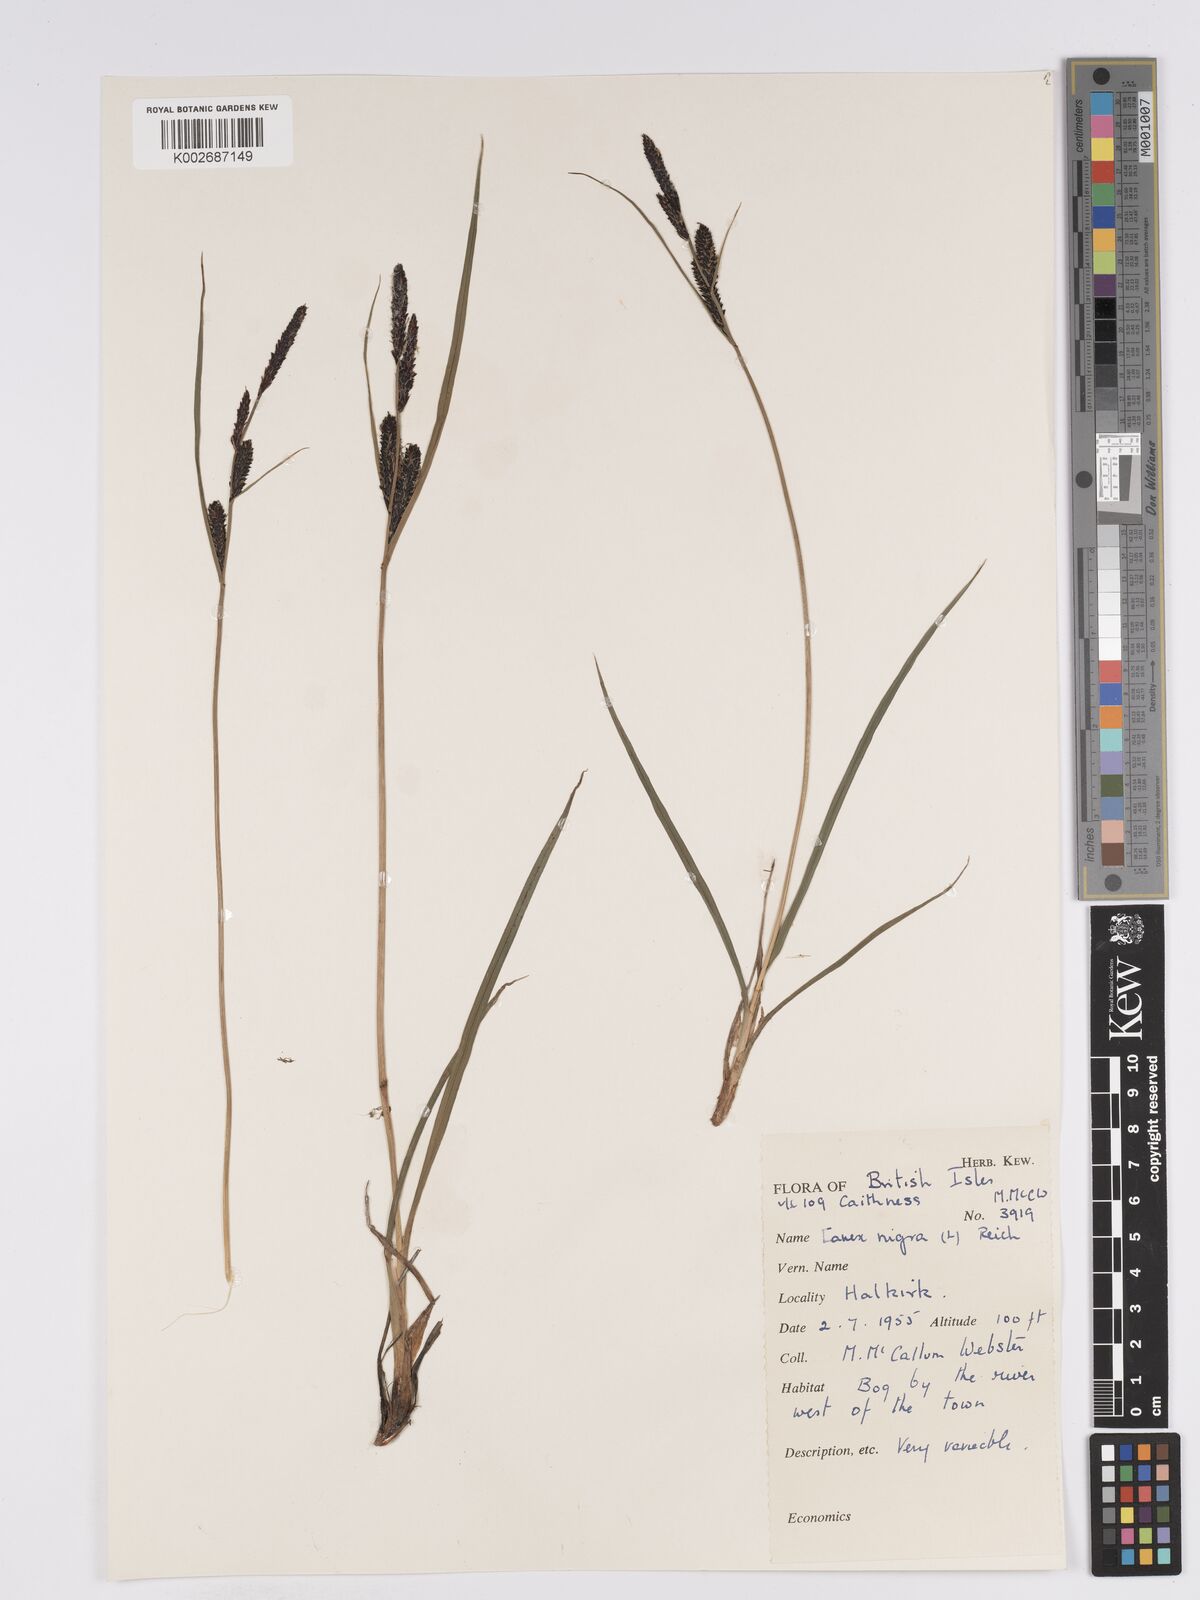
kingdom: Plantae
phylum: Tracheophyta
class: Liliopsida
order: Poales
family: Cyperaceae
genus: Carex
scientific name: Carex nigra
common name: Common sedge
